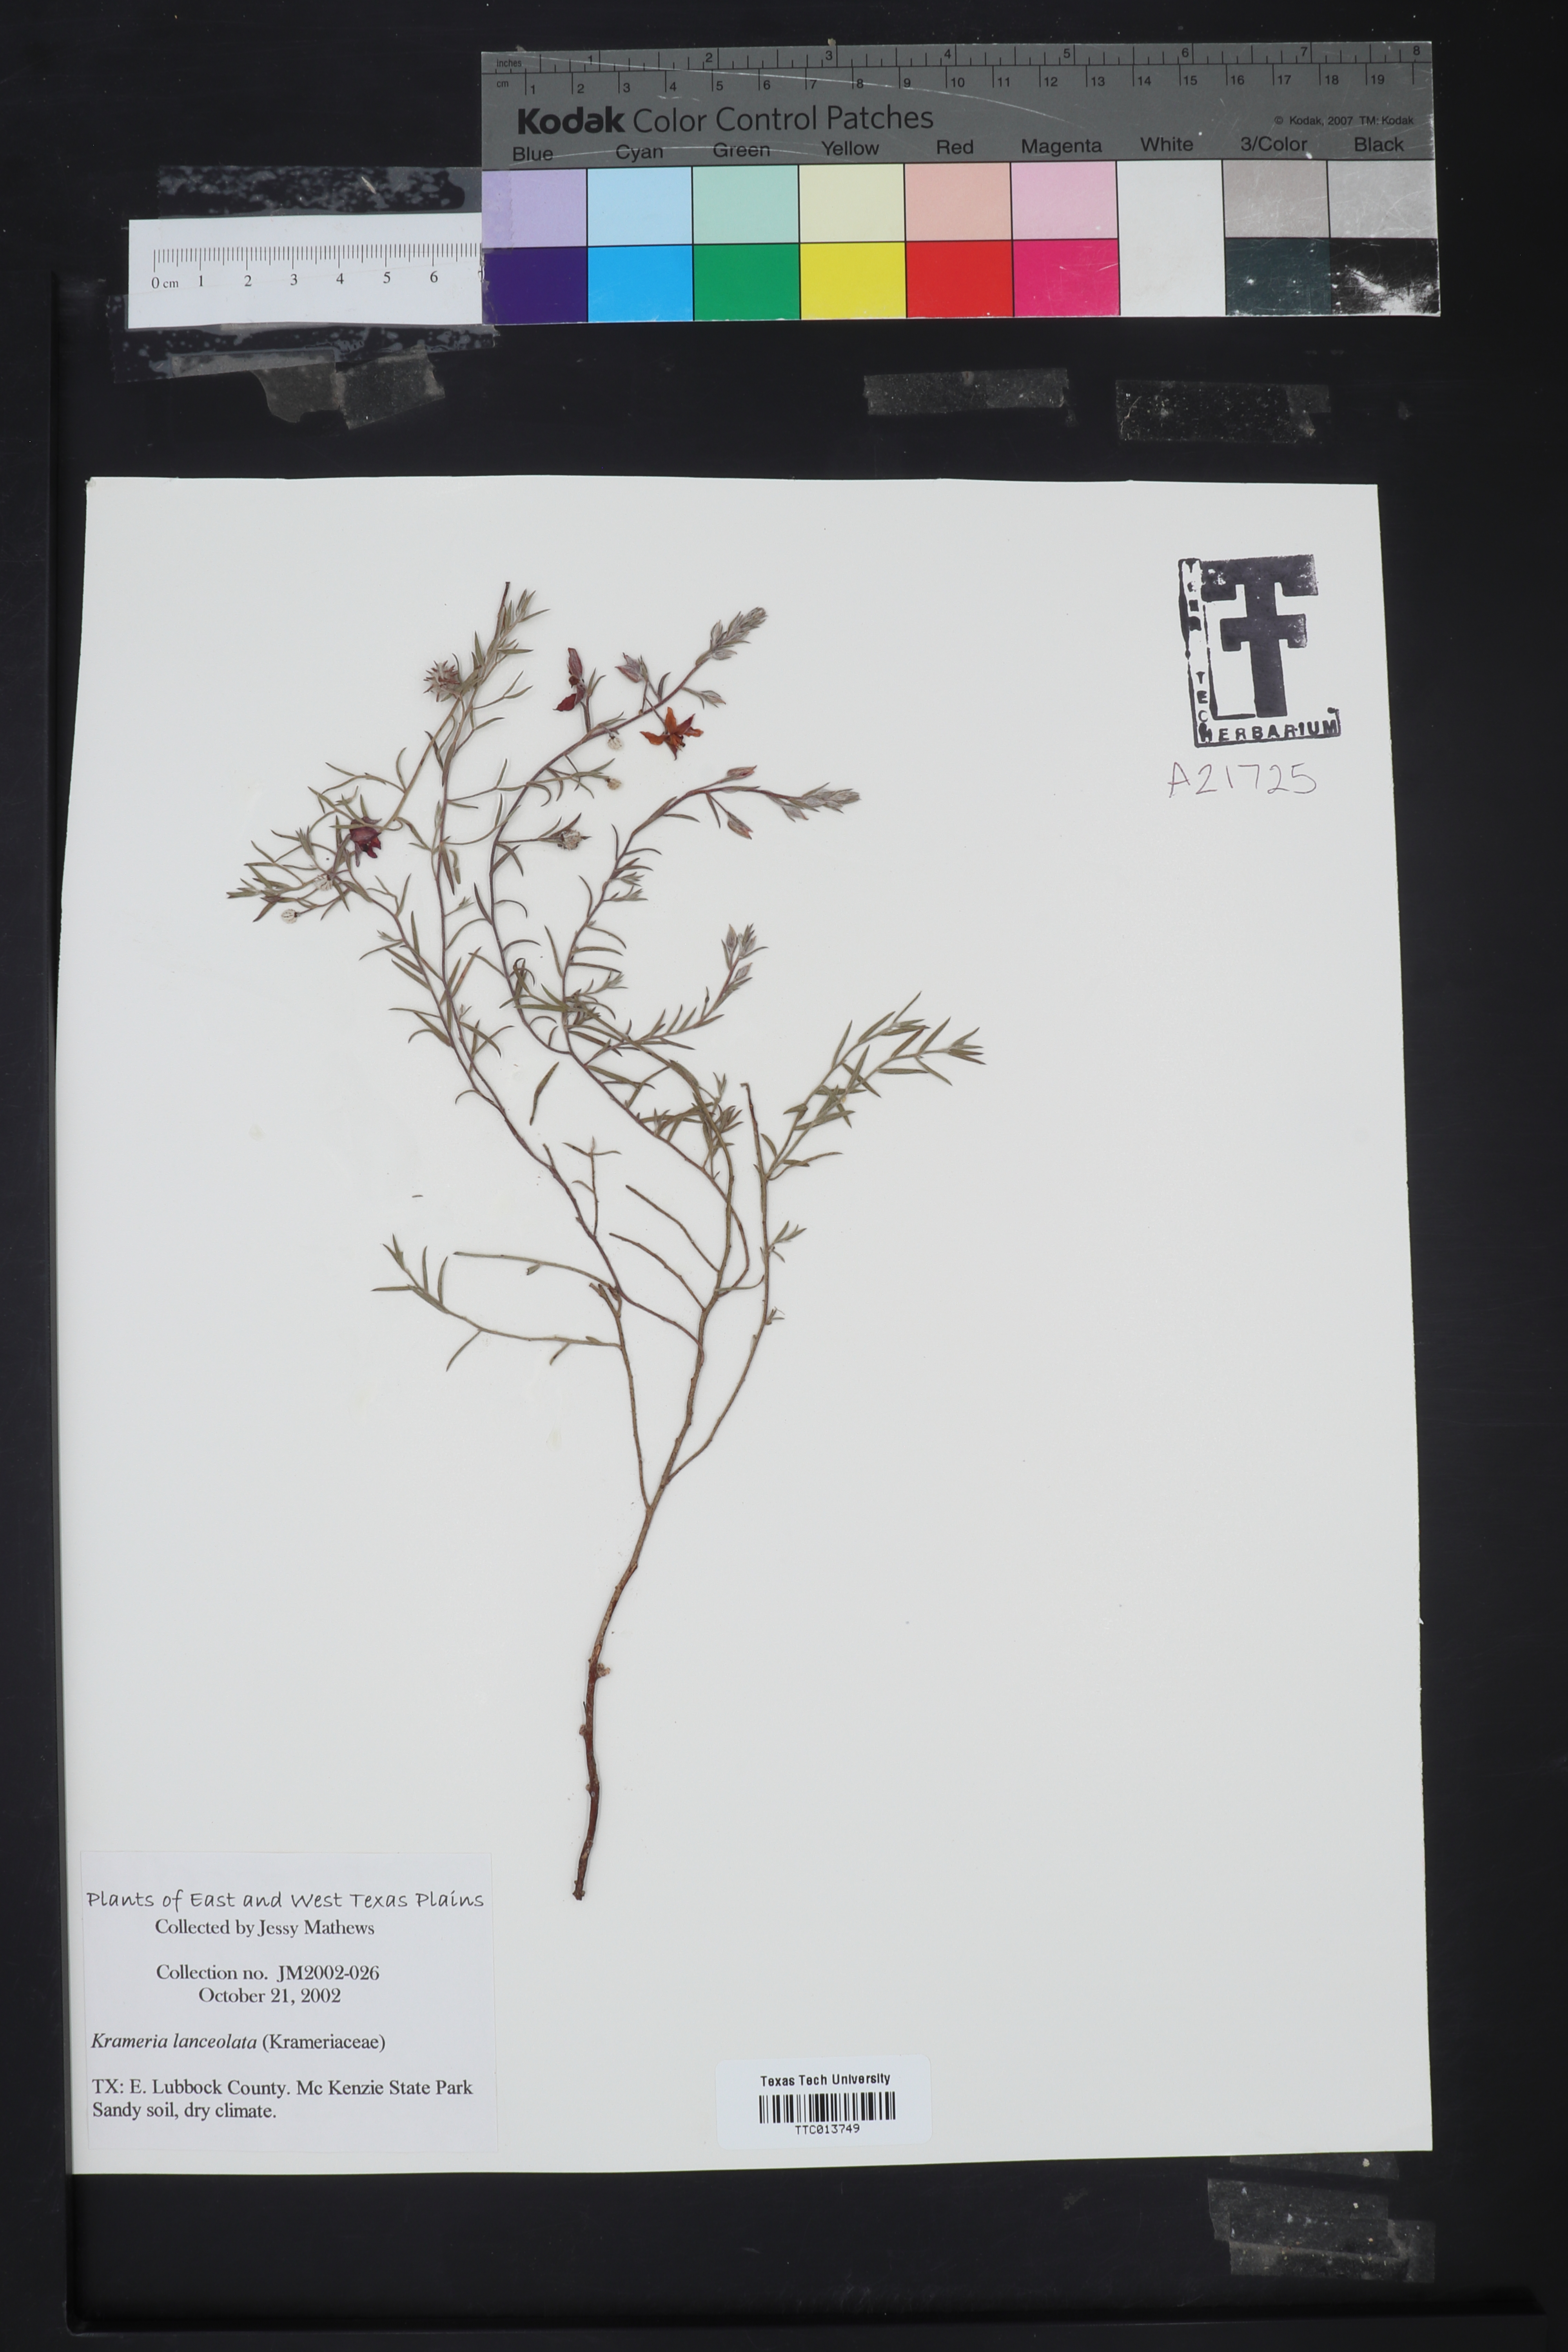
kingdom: Plantae
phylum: Tracheophyta
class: Magnoliopsida
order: Zygophyllales
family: Krameriaceae
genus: Krameria
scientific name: Krameria lanceolata
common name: Ratany
